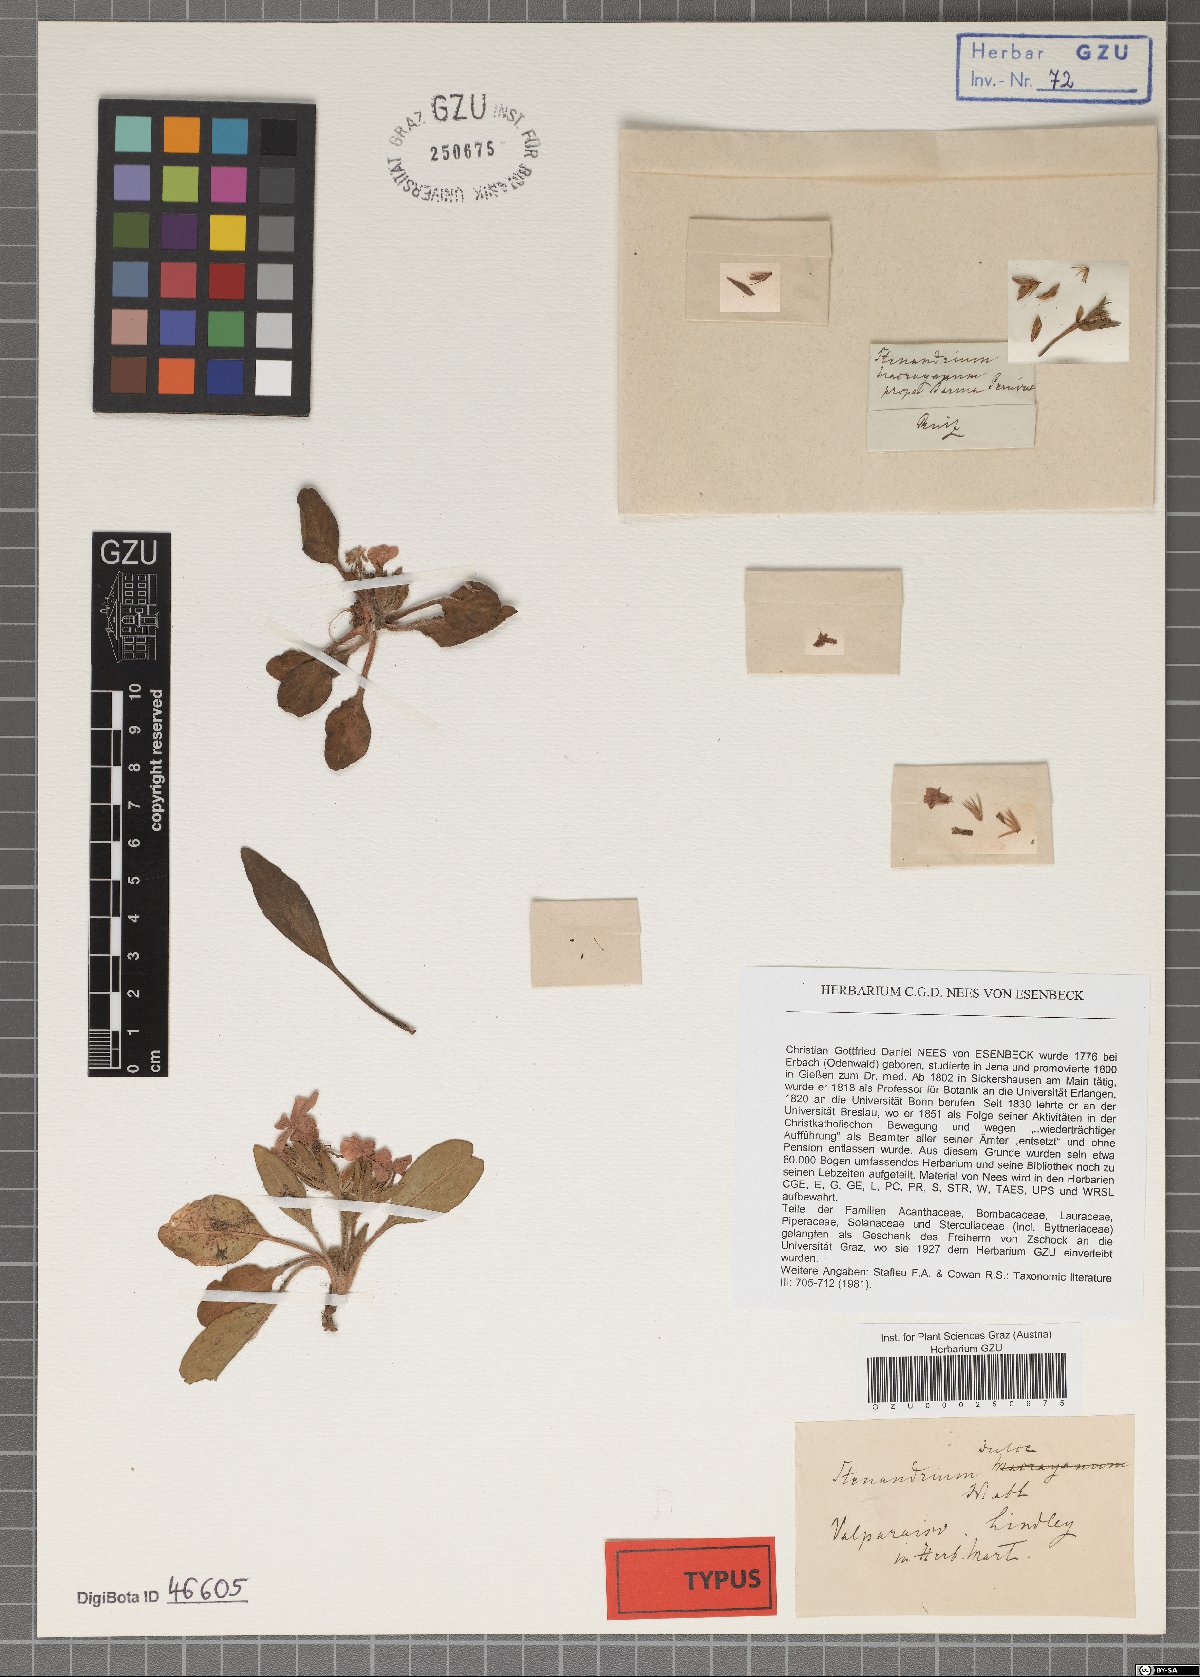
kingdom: Plantae
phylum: Tracheophyta
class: Magnoliopsida
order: Lamiales
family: Acanthaceae
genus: Stenandrium
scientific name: Stenandrium dulce
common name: Pinklet
